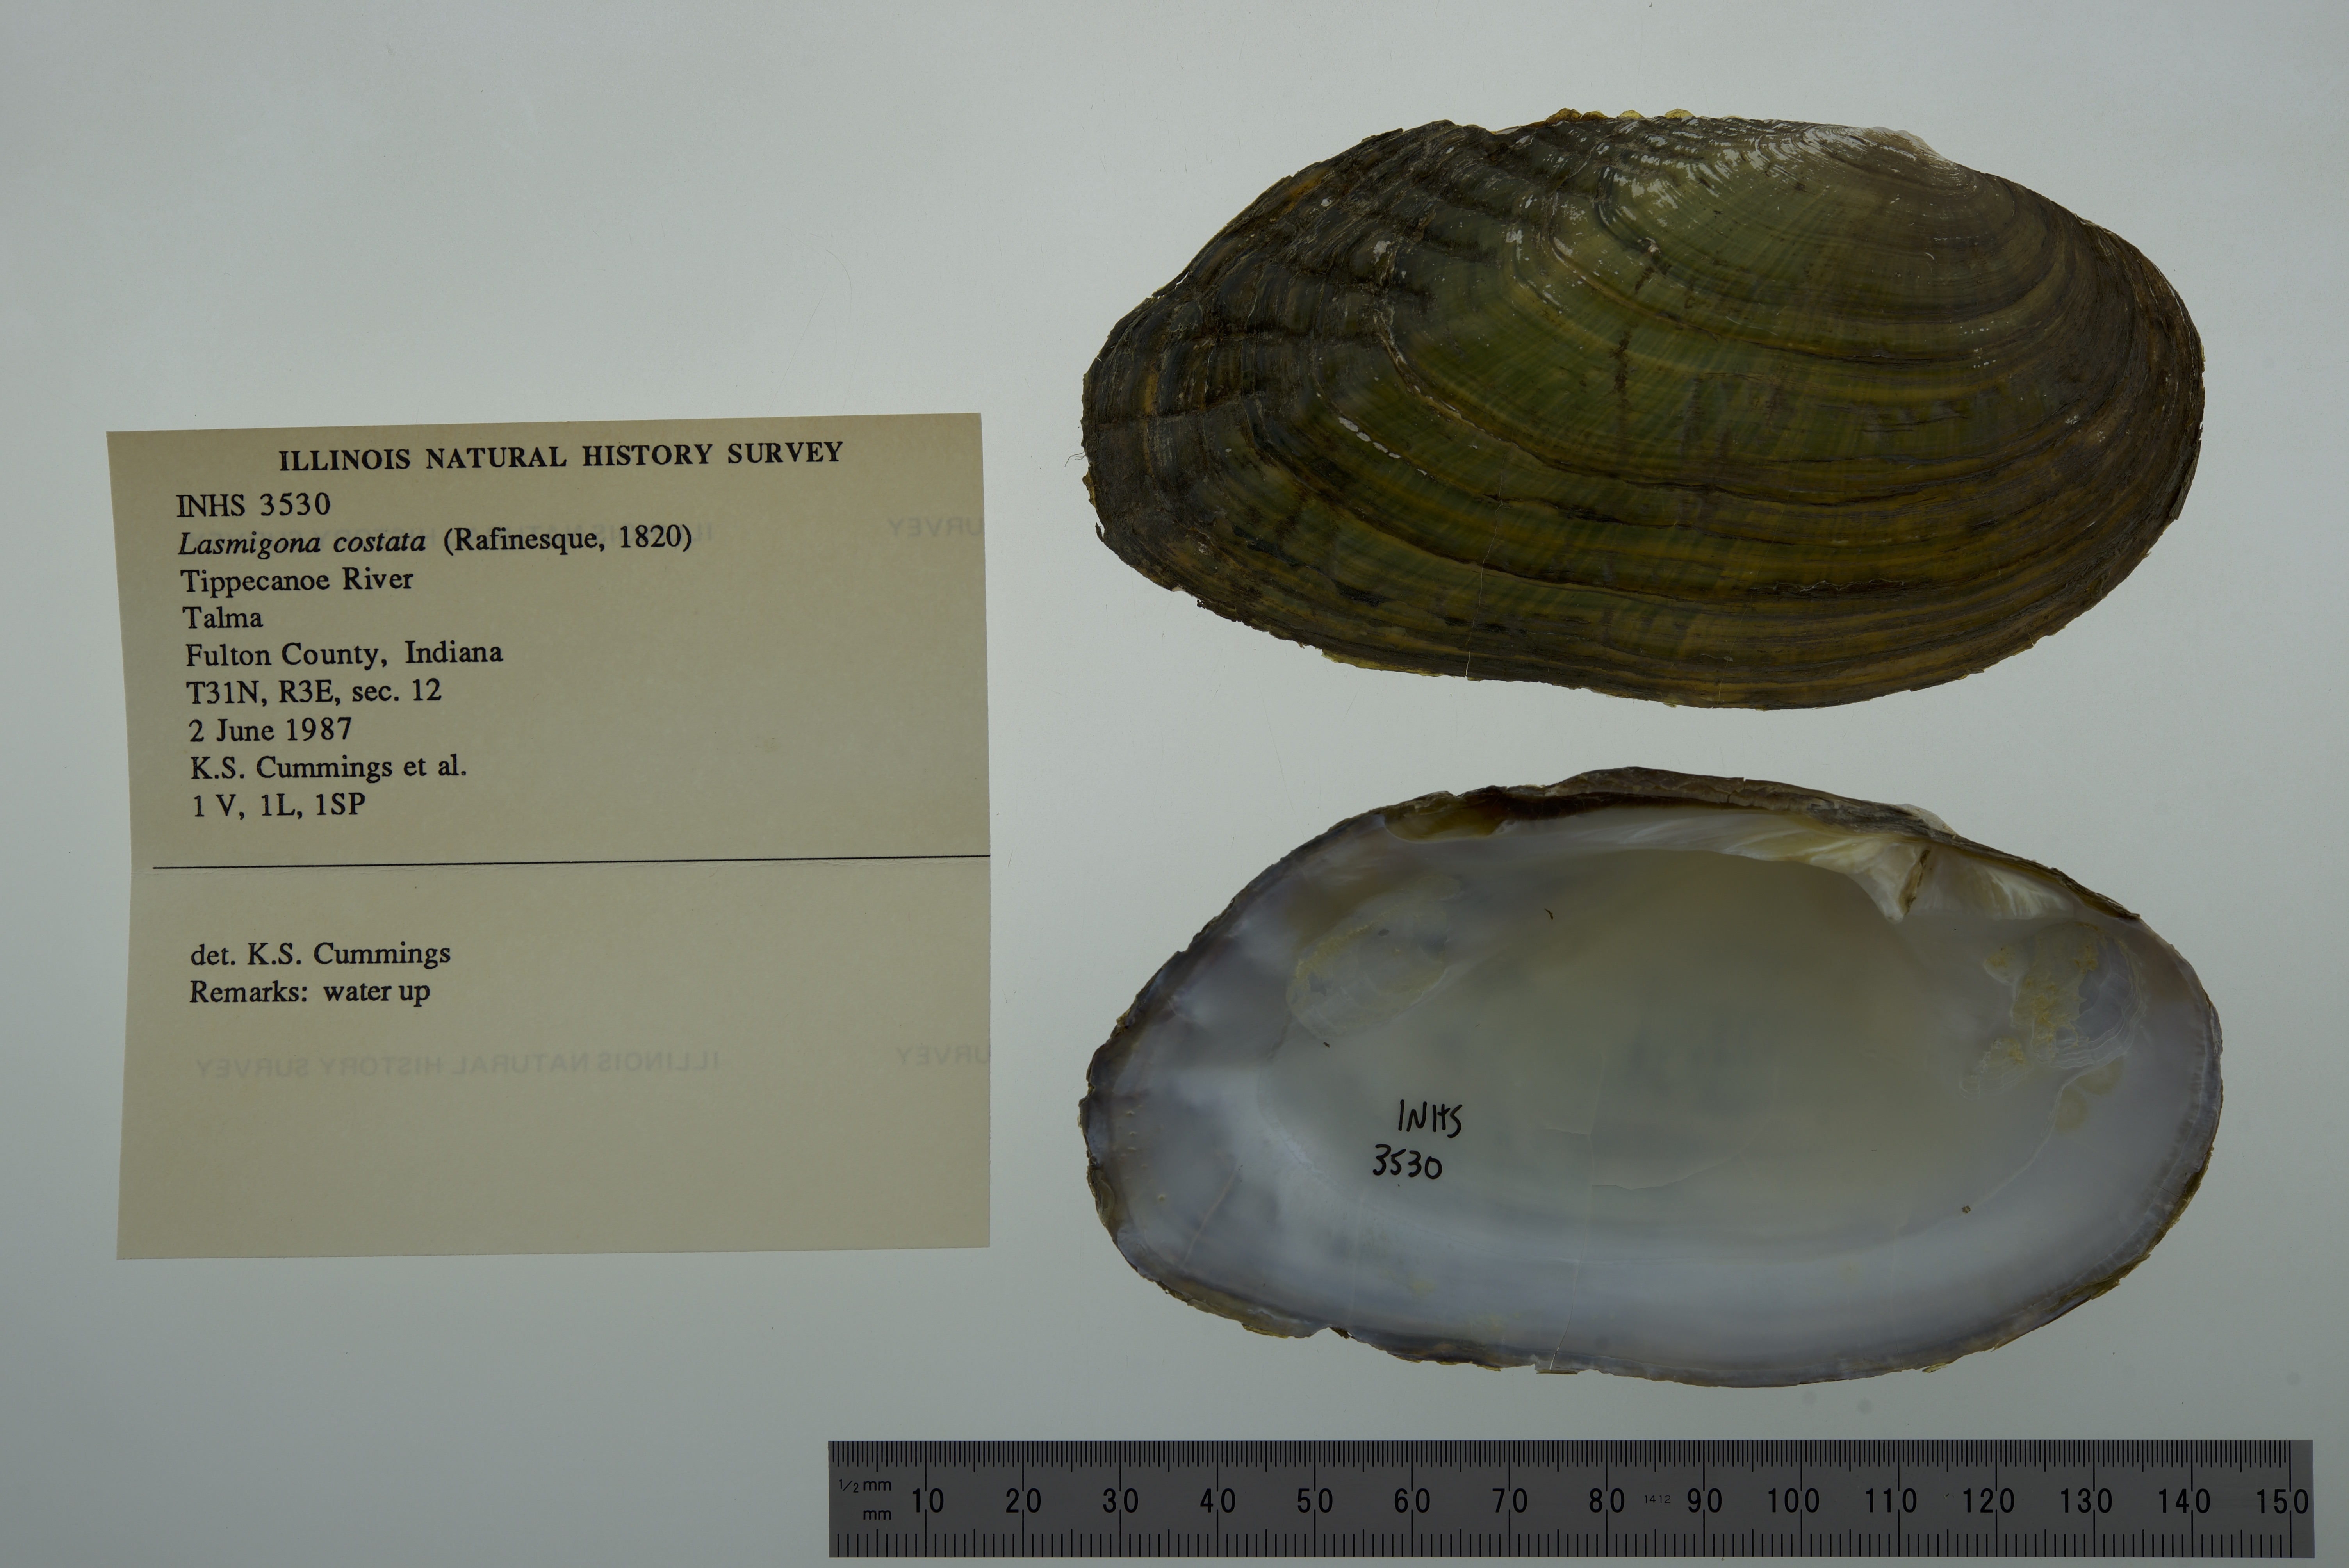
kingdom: Animalia
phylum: Mollusca
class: Bivalvia
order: Unionida
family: Unionidae
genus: Lasmigona
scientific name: Lasmigona costata
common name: Flutedshell
